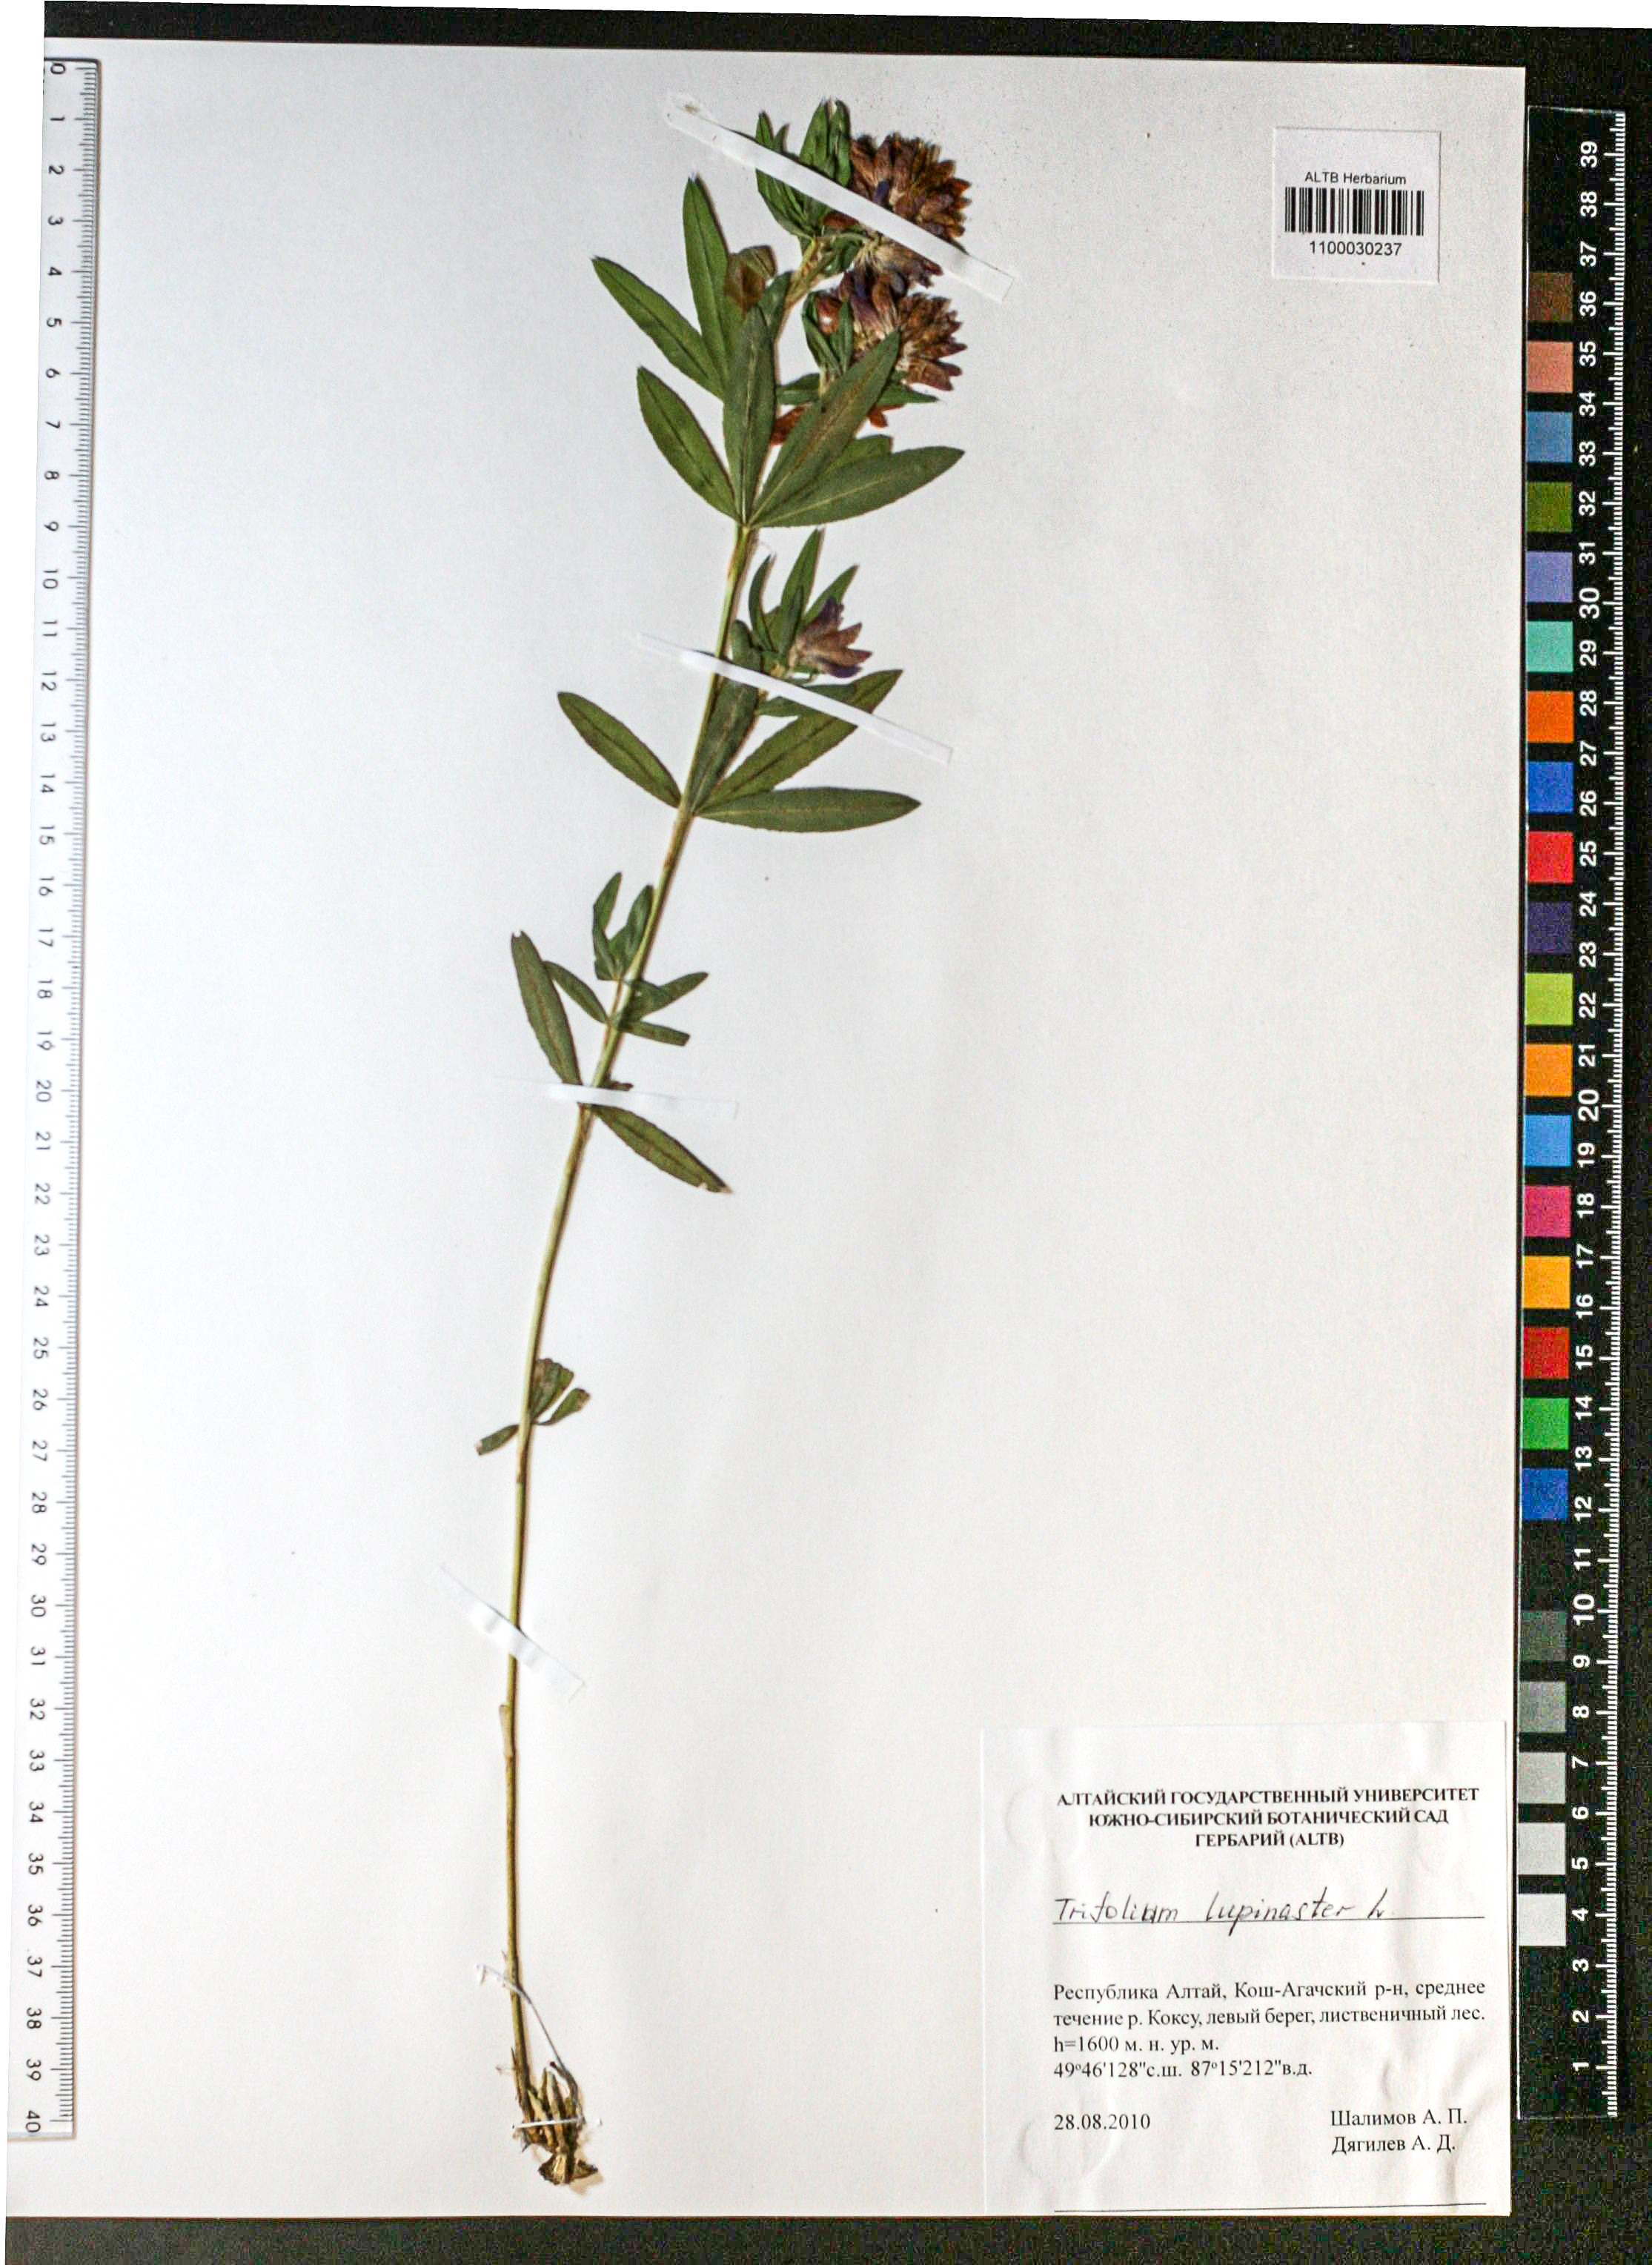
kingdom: Plantae
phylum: Tracheophyta
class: Magnoliopsida
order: Fabales
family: Fabaceae
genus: Trifolium
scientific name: Trifolium lupinaster
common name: Lupine clover
